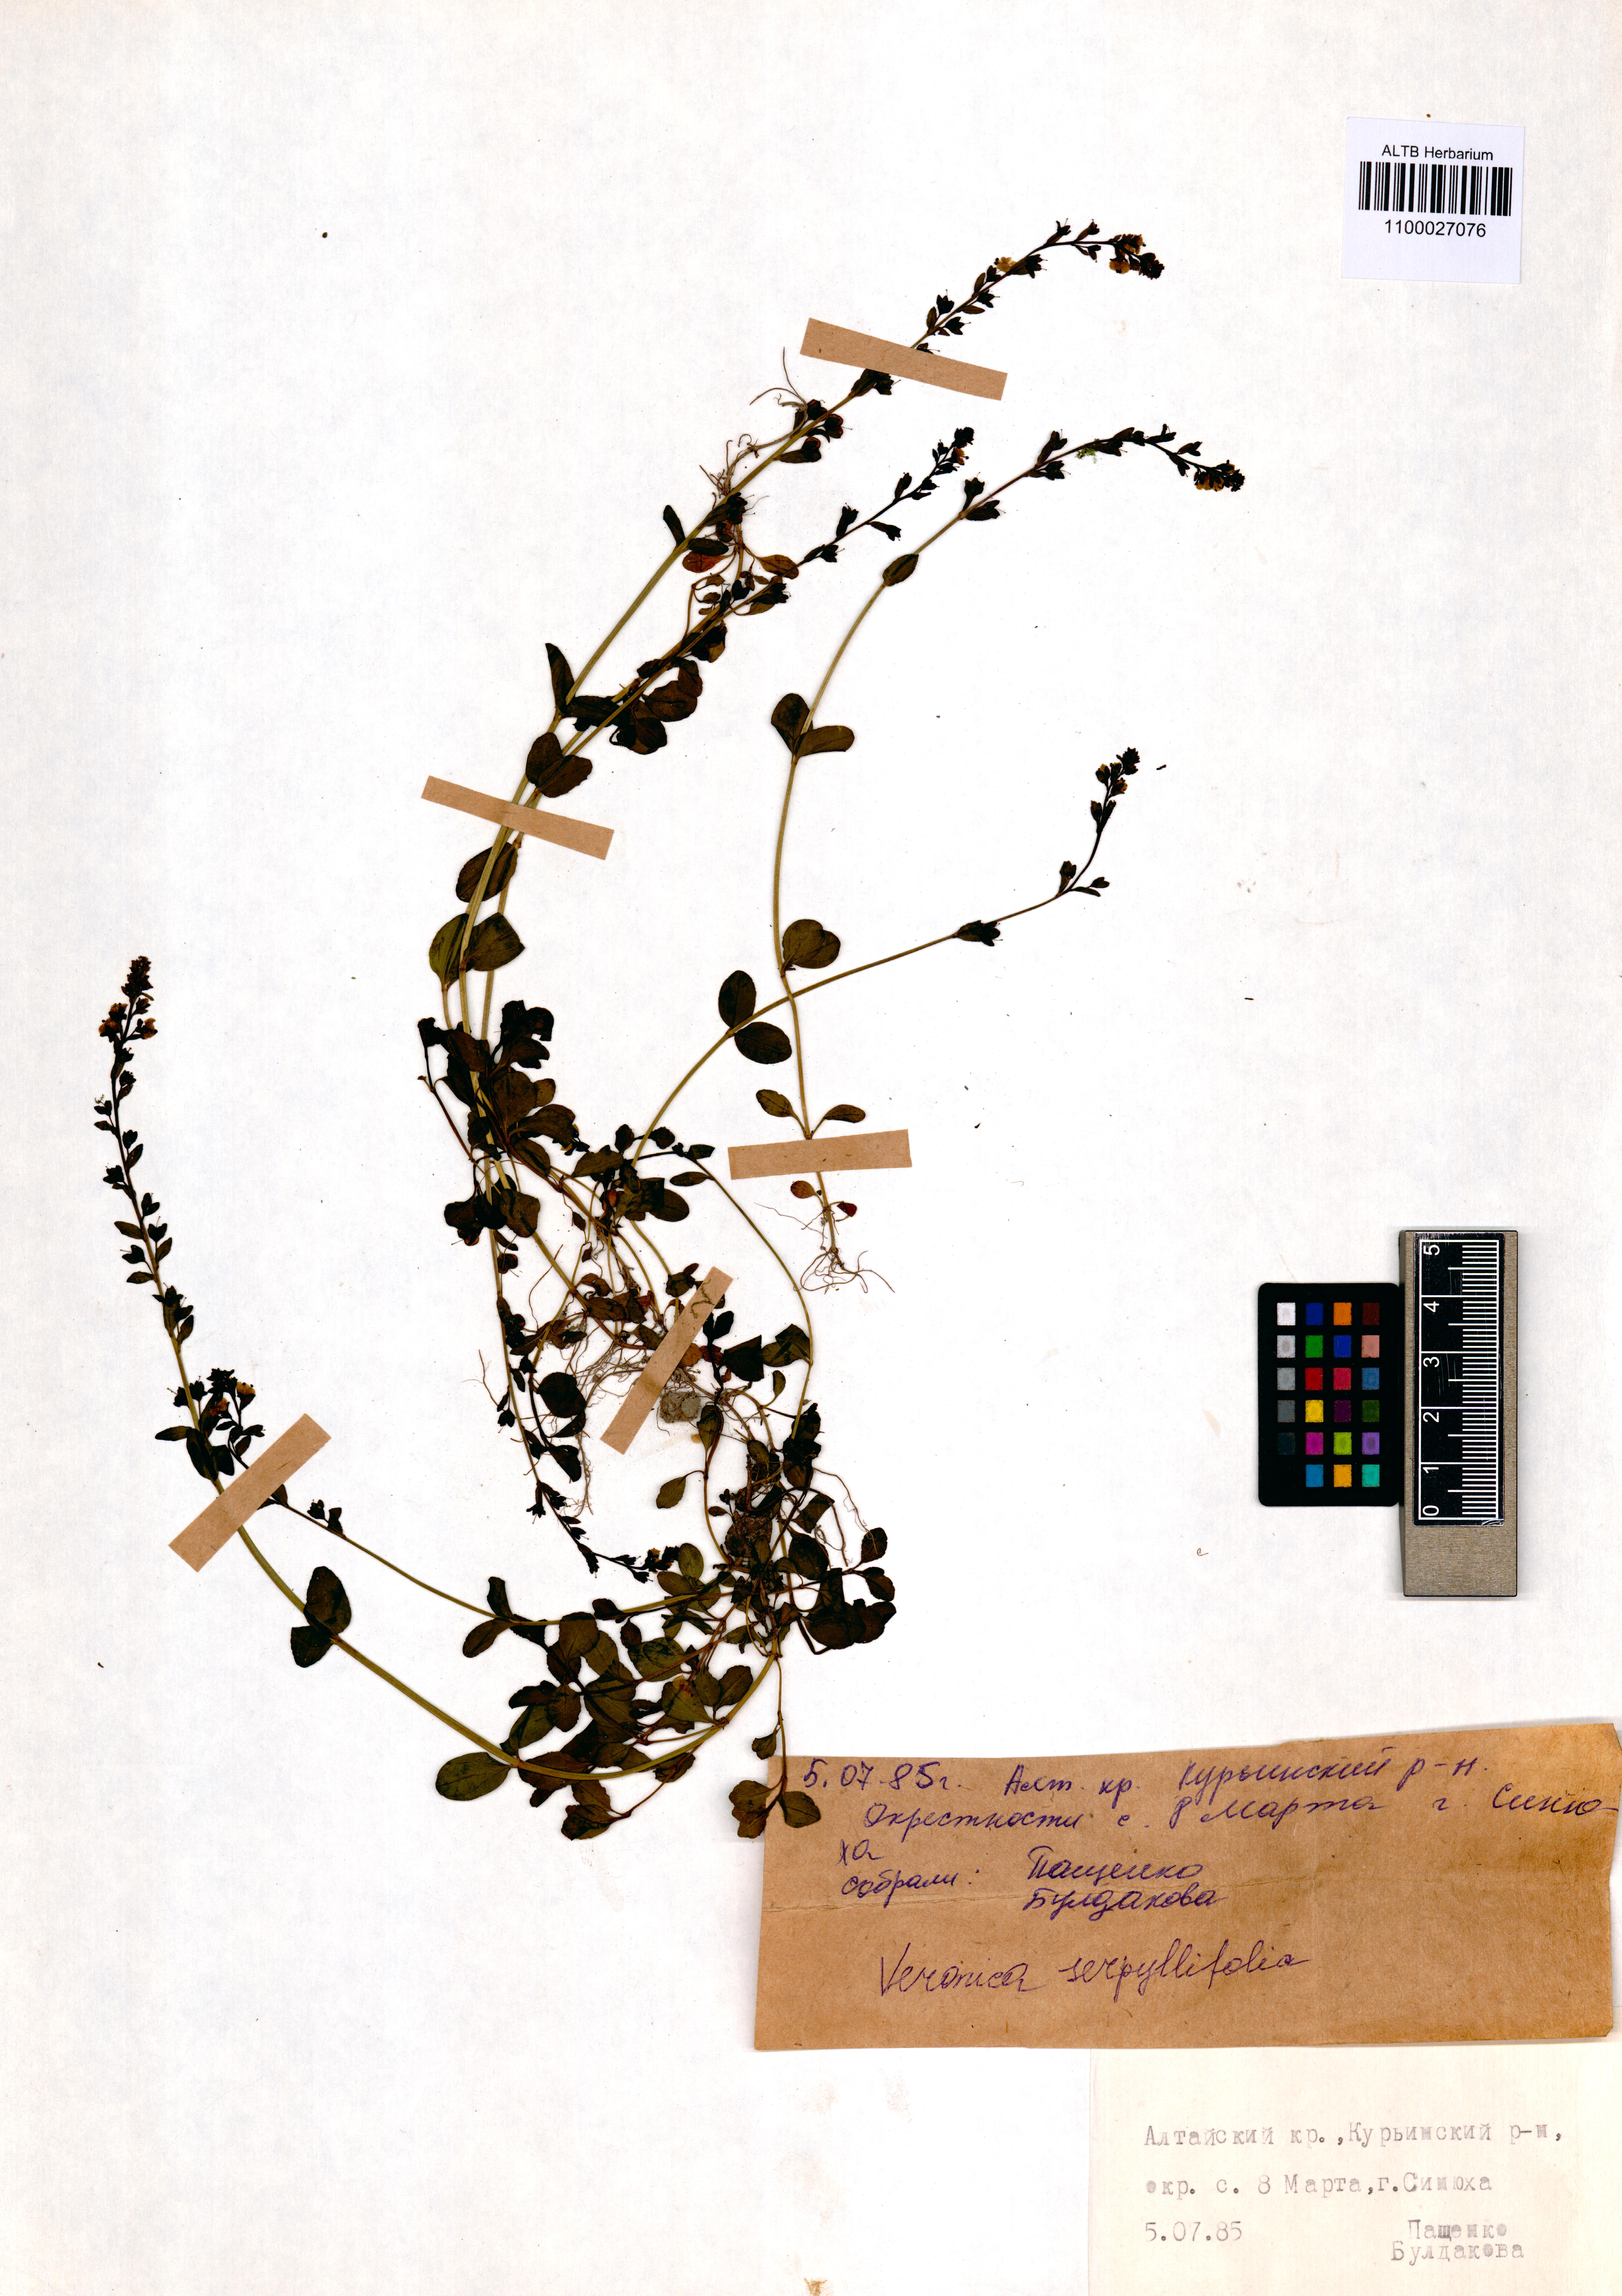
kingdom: Plantae
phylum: Tracheophyta
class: Magnoliopsida
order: Lamiales
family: Plantaginaceae
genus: Veronica
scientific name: Veronica serpyllifolia
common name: Thyme-leaved speedwell
